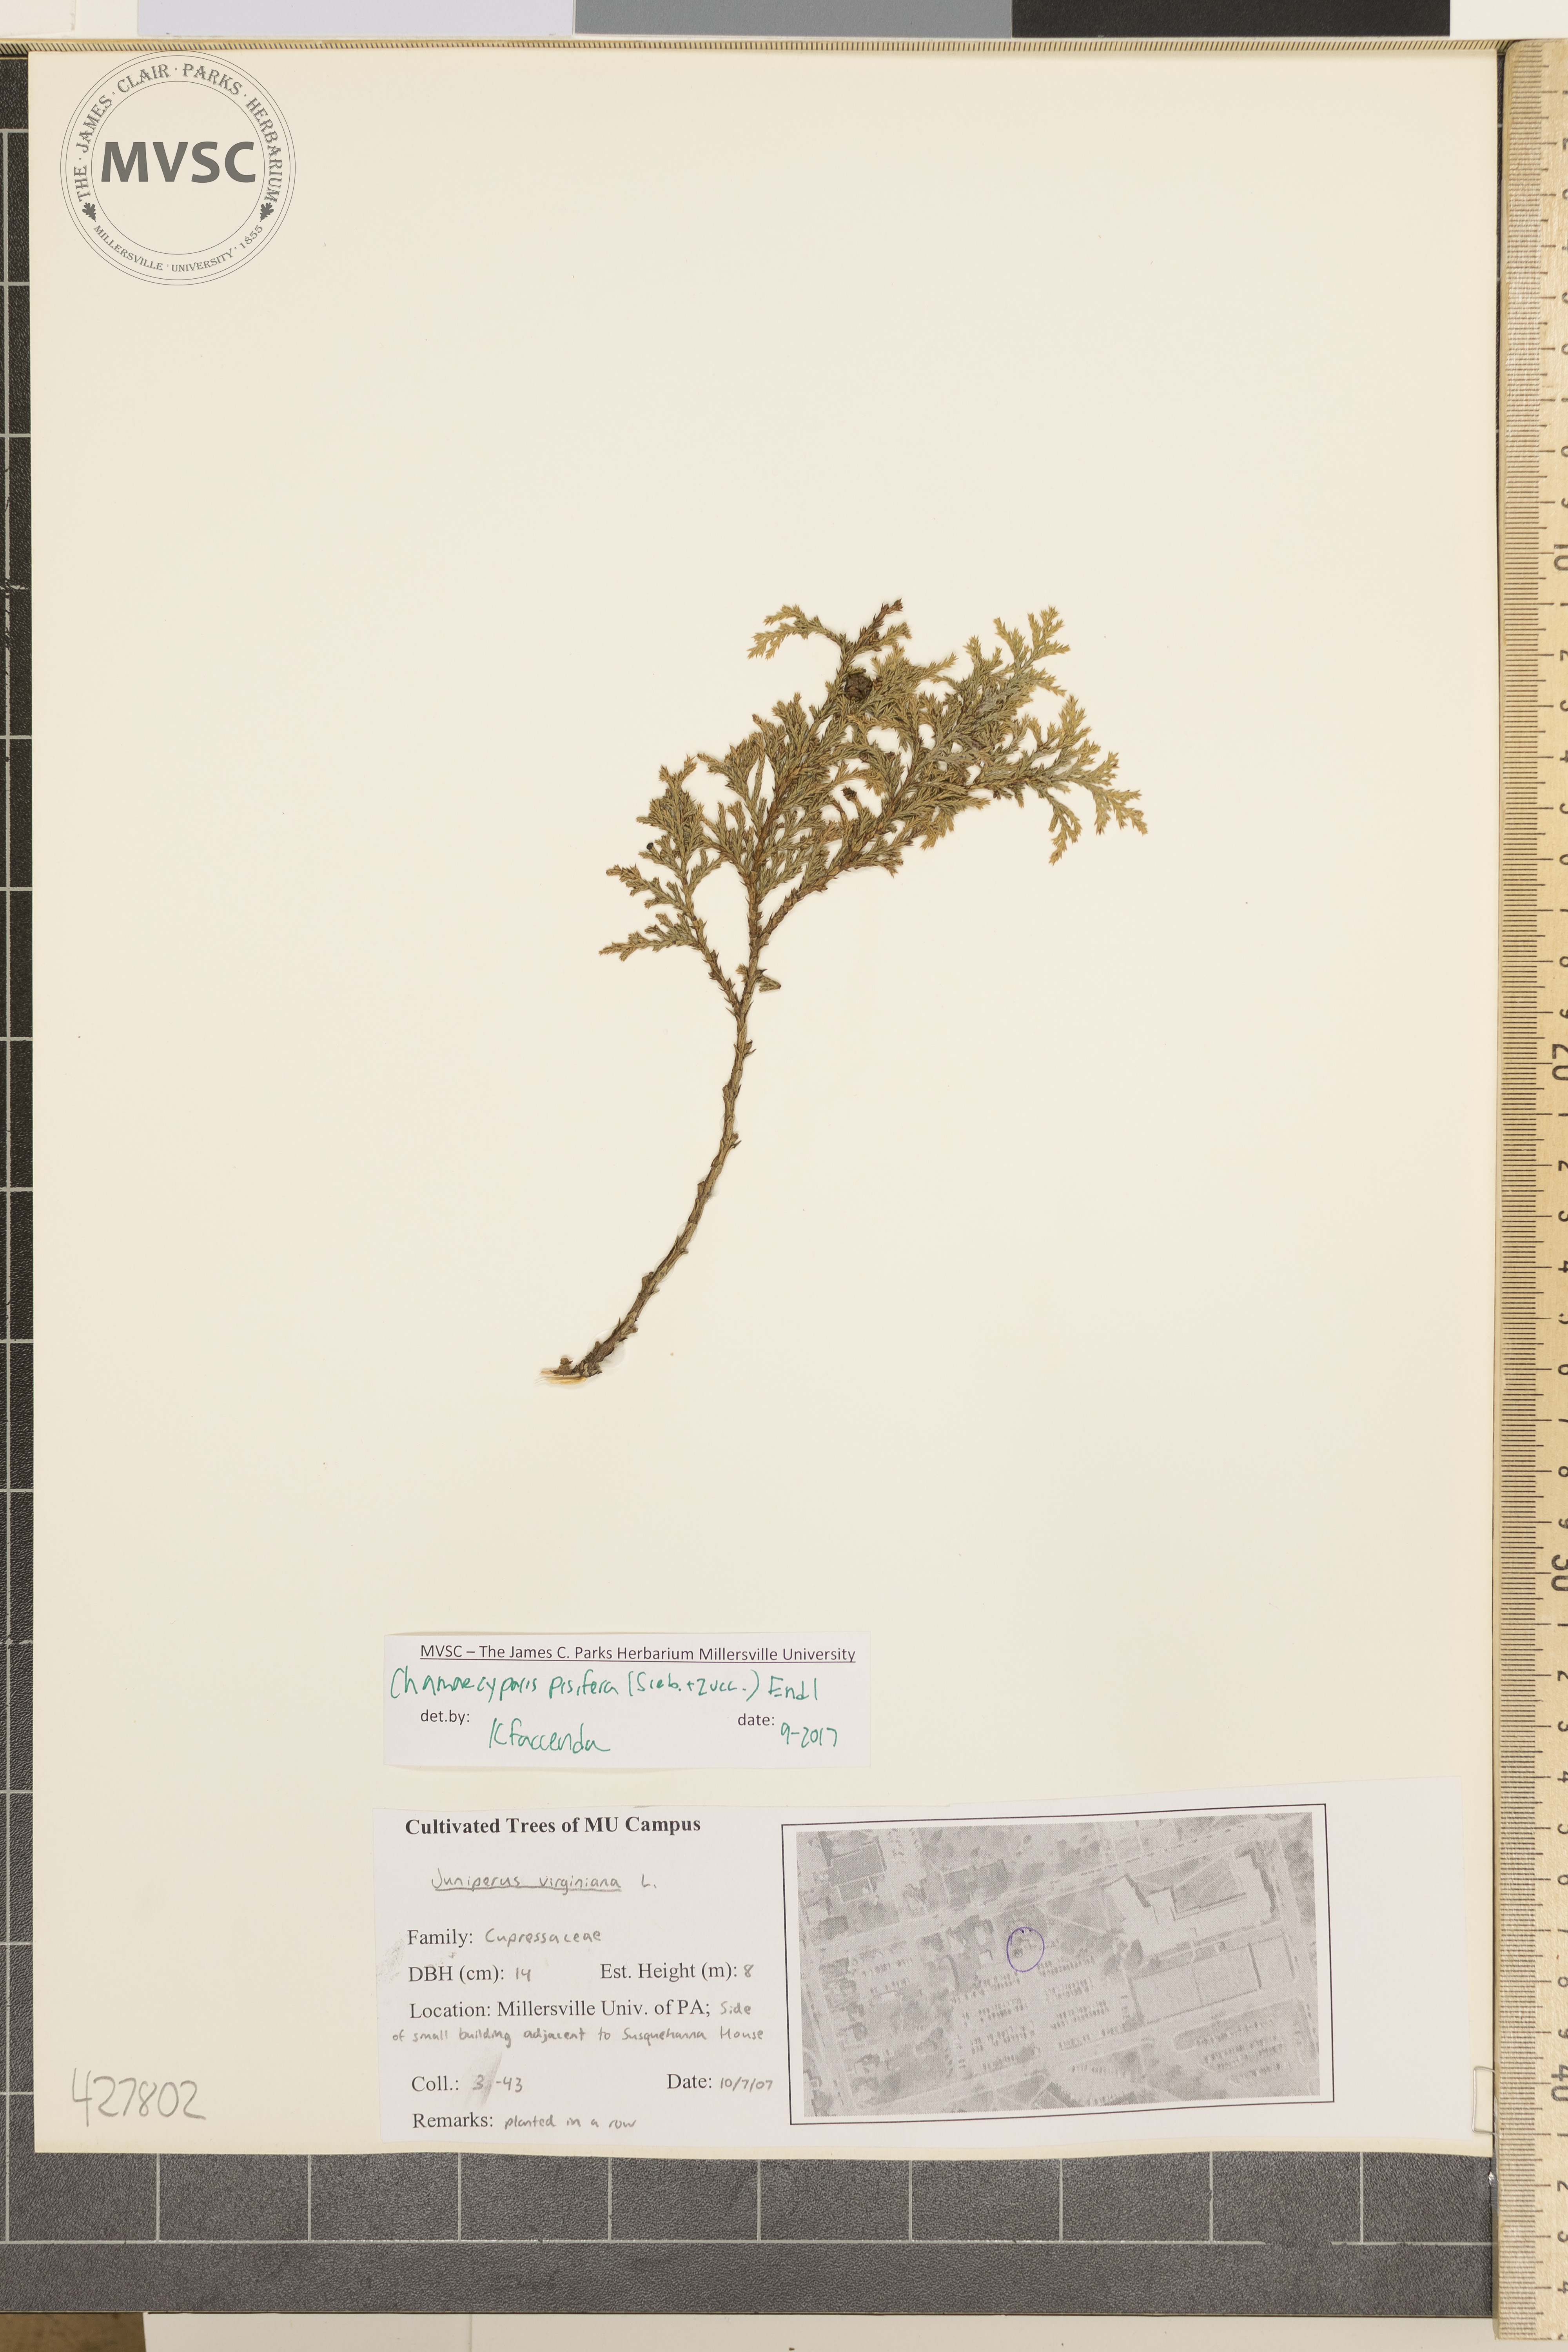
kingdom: Plantae
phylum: Tracheophyta
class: Pinopsida
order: Pinales
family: Cupressaceae
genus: Chamaecyparis
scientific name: Chamaecyparis pisifera
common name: Sawara cypress
